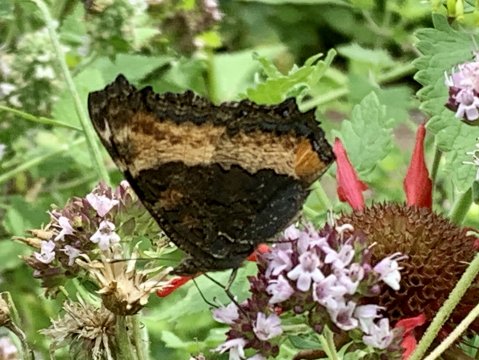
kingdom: Animalia
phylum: Arthropoda
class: Insecta
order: Lepidoptera
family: Nymphalidae
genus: Aglais
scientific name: Aglais milberti
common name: Milbert's Tortoiseshell
